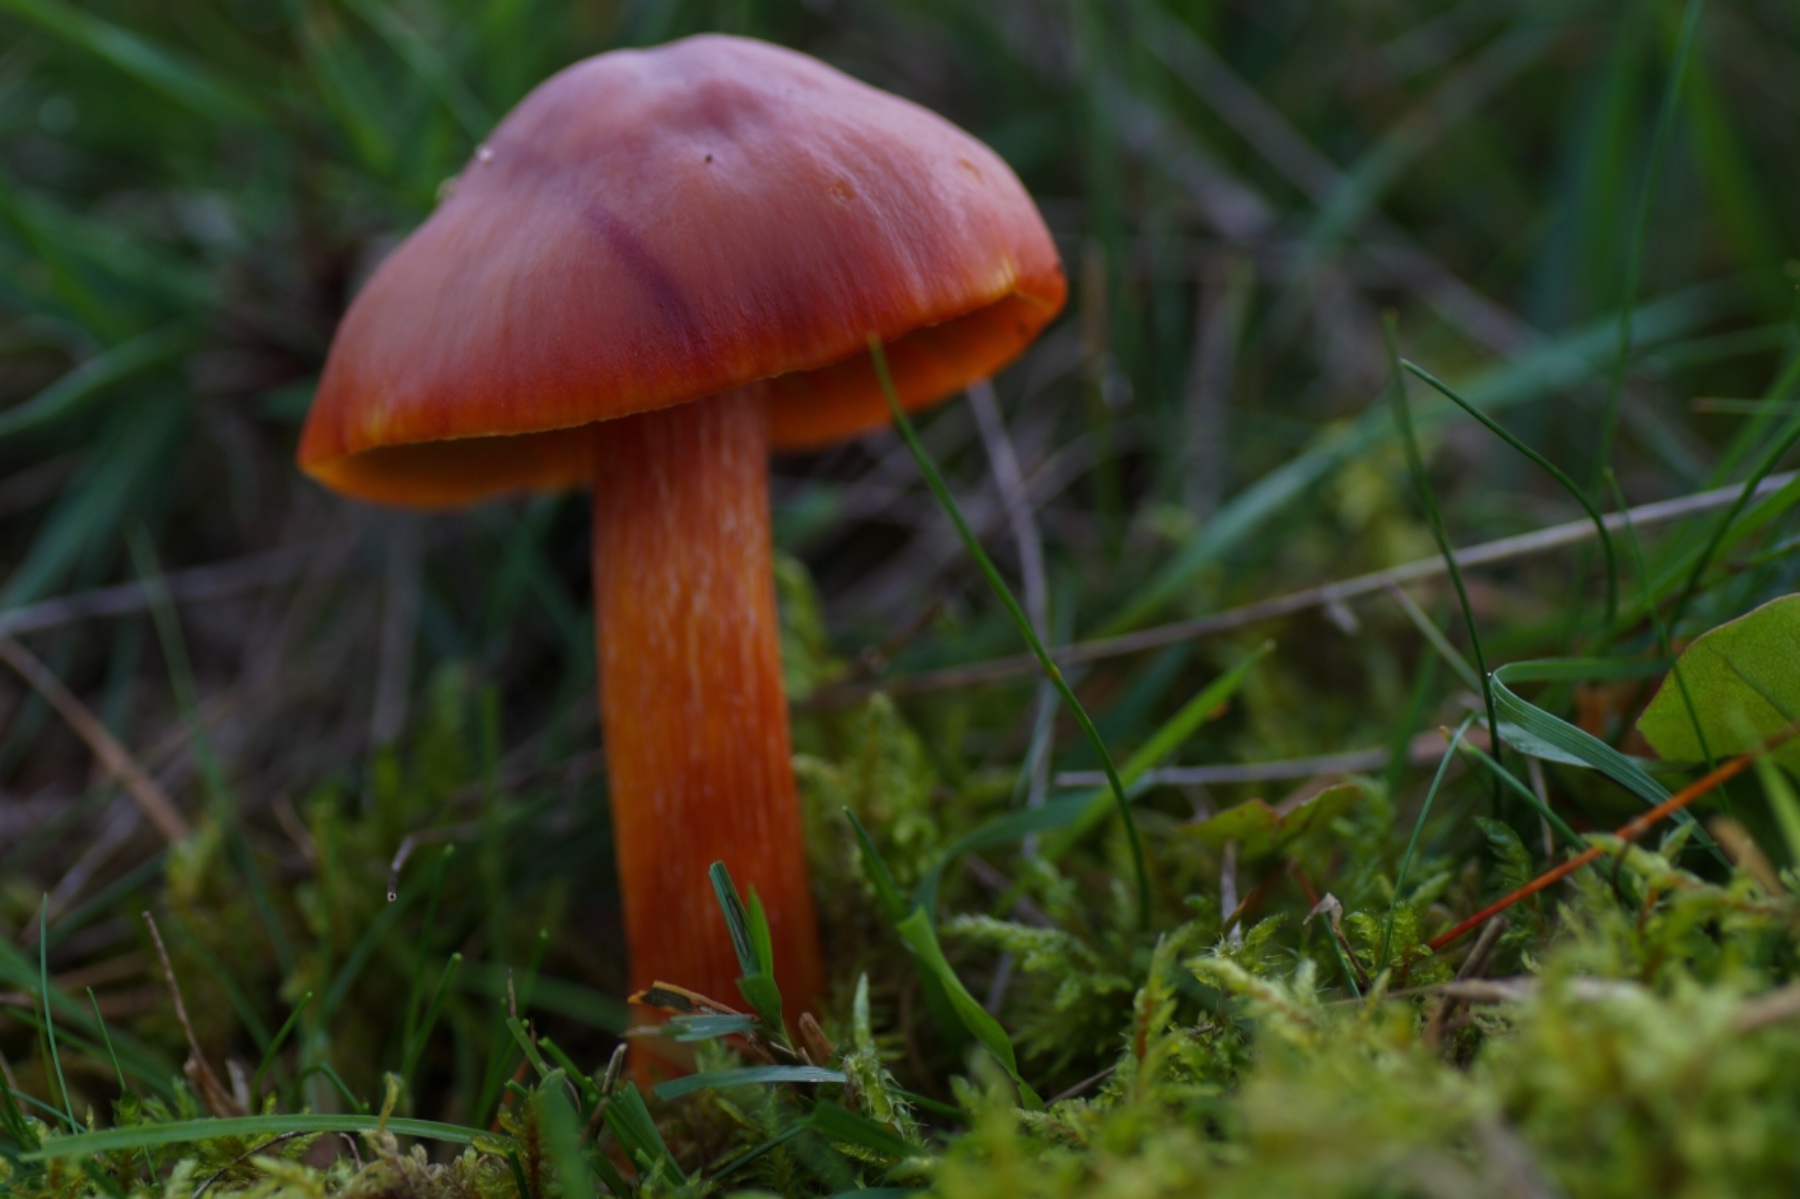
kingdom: Fungi
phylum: Basidiomycota
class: Agaricomycetes
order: Agaricales
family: Hygrophoraceae
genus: Hygrocybe
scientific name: Hygrocybe punicea
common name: skarlagen-vokshat
